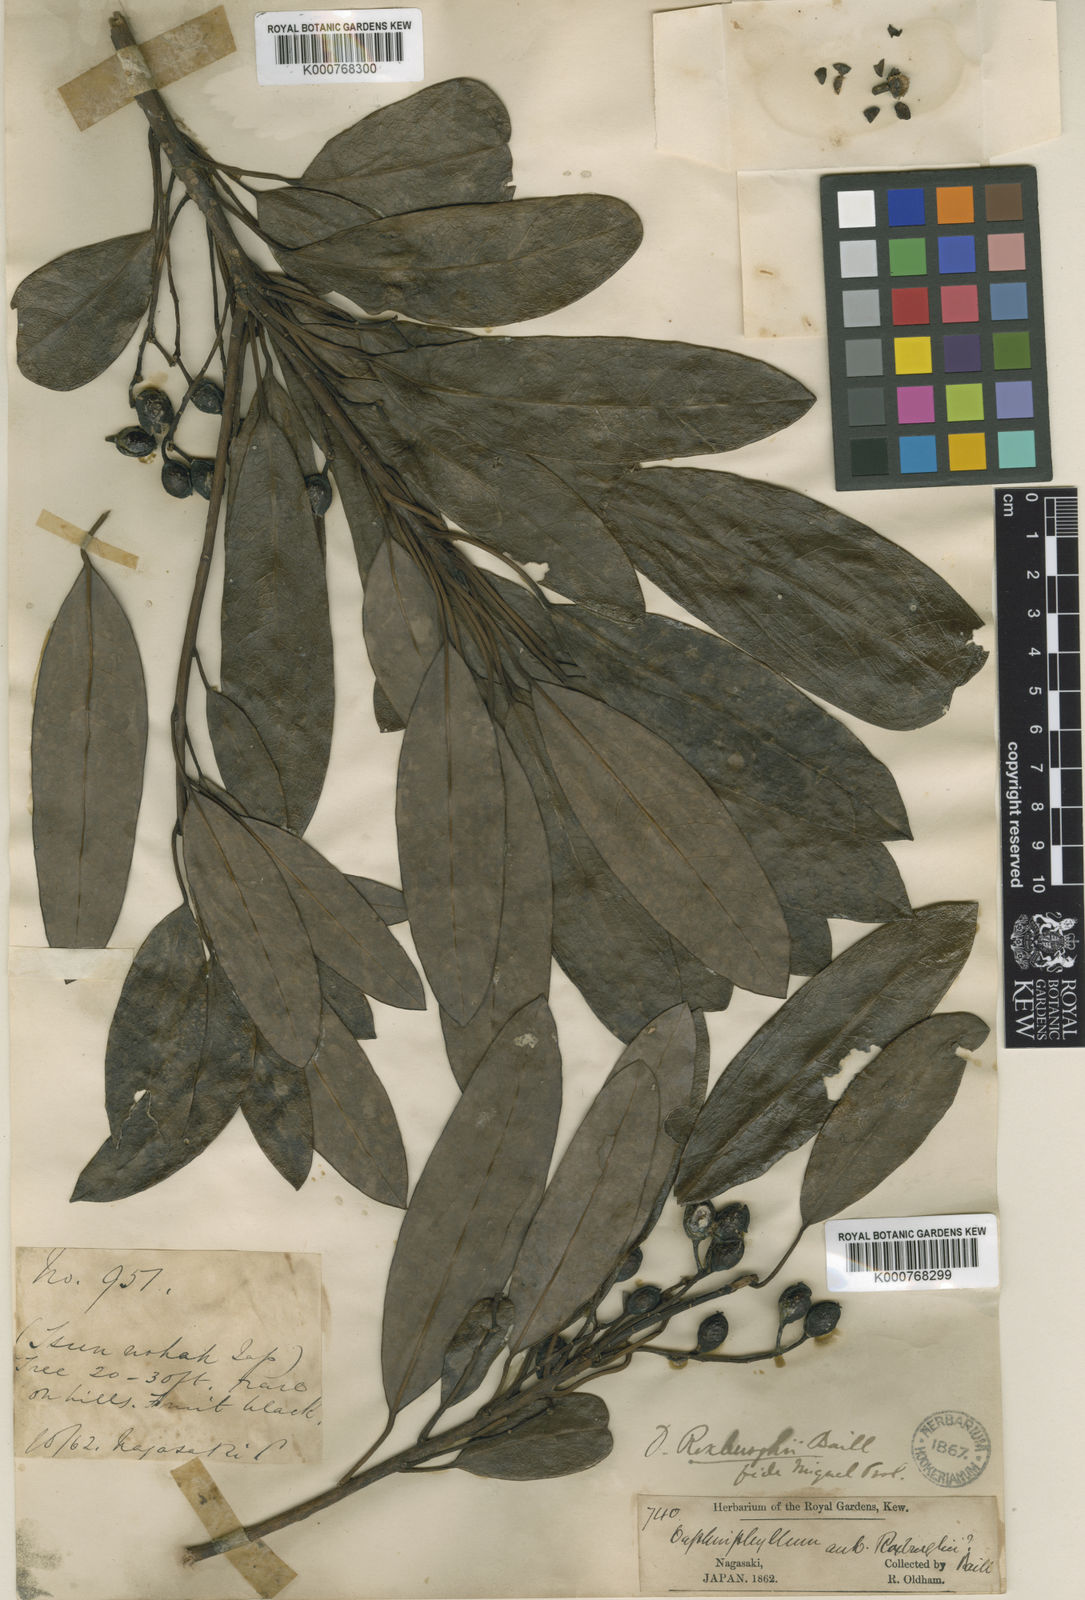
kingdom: Plantae
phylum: Tracheophyta
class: Magnoliopsida
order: Saxifragales
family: Daphniphyllaceae
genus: Daphniphyllum
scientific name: Daphniphyllum pentandrum
